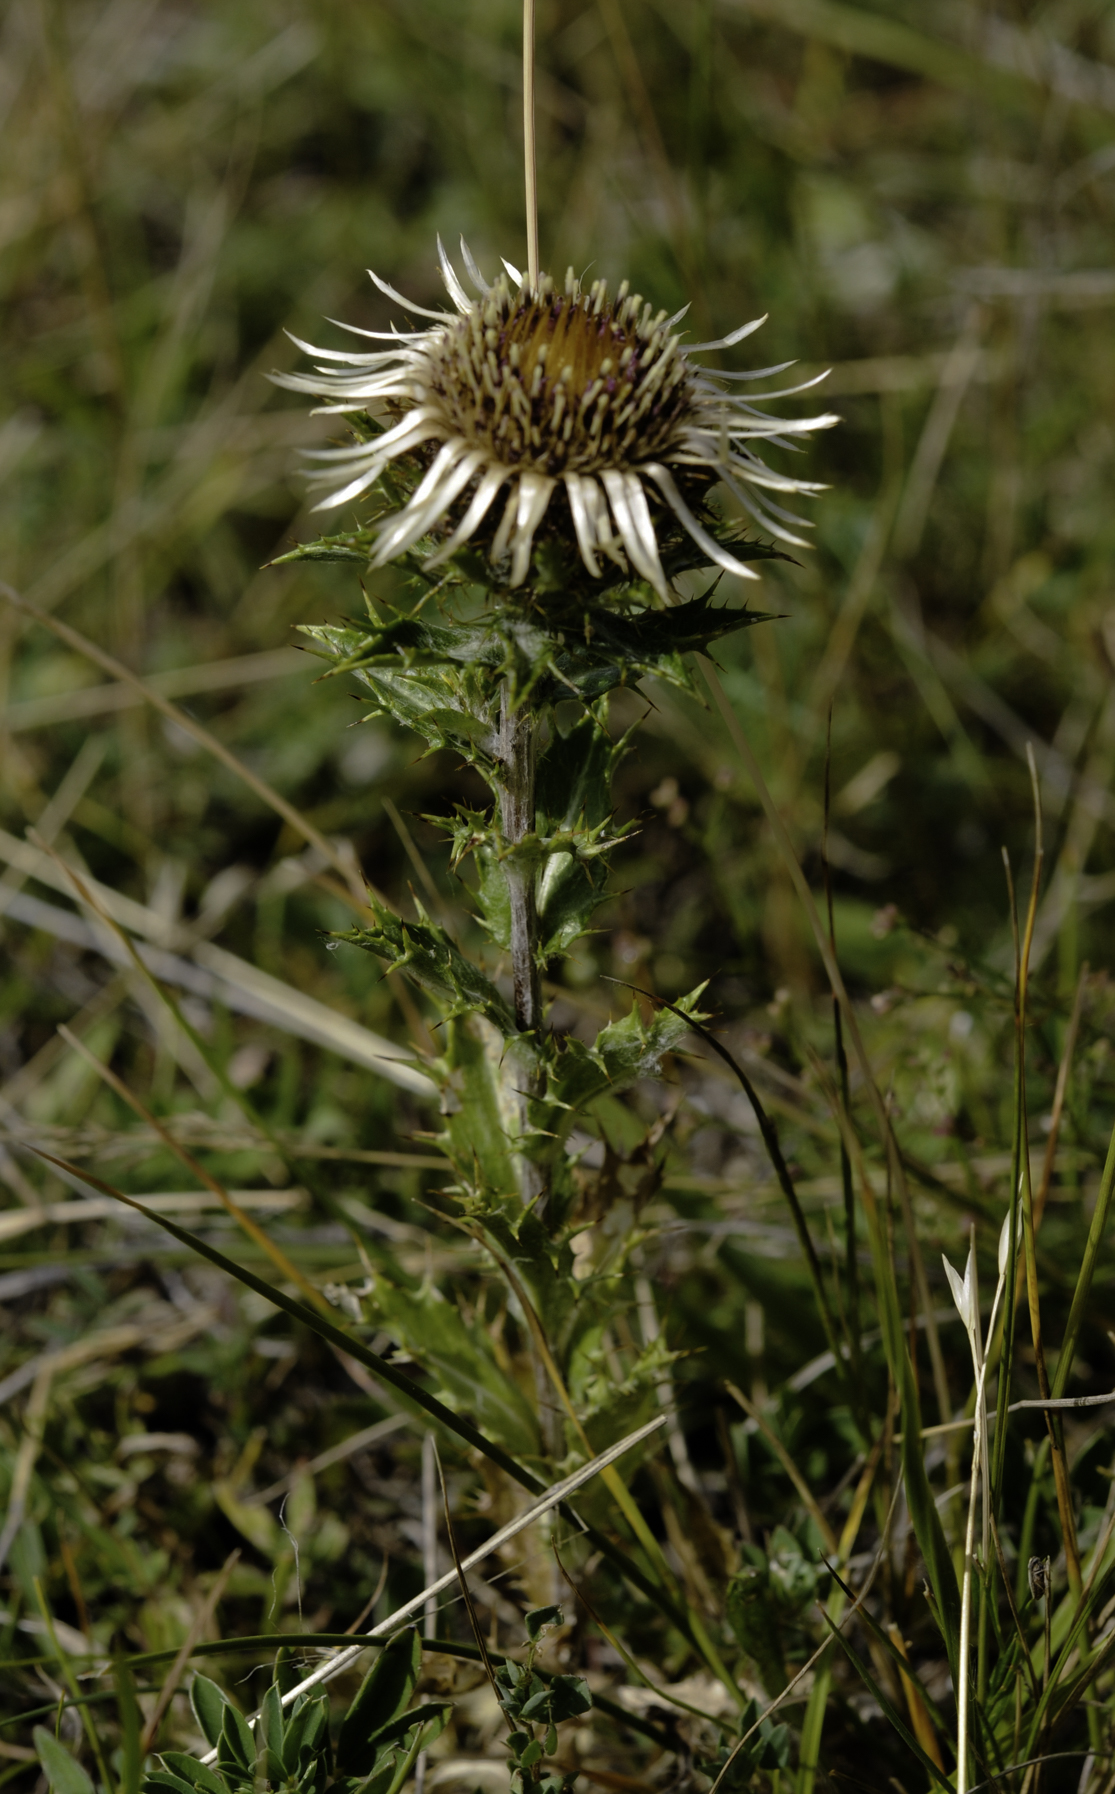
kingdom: Plantae
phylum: Tracheophyta
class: Magnoliopsida
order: Asterales
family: Asteraceae
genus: Carlina
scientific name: Carlina vulgaris
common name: Carline thistle
